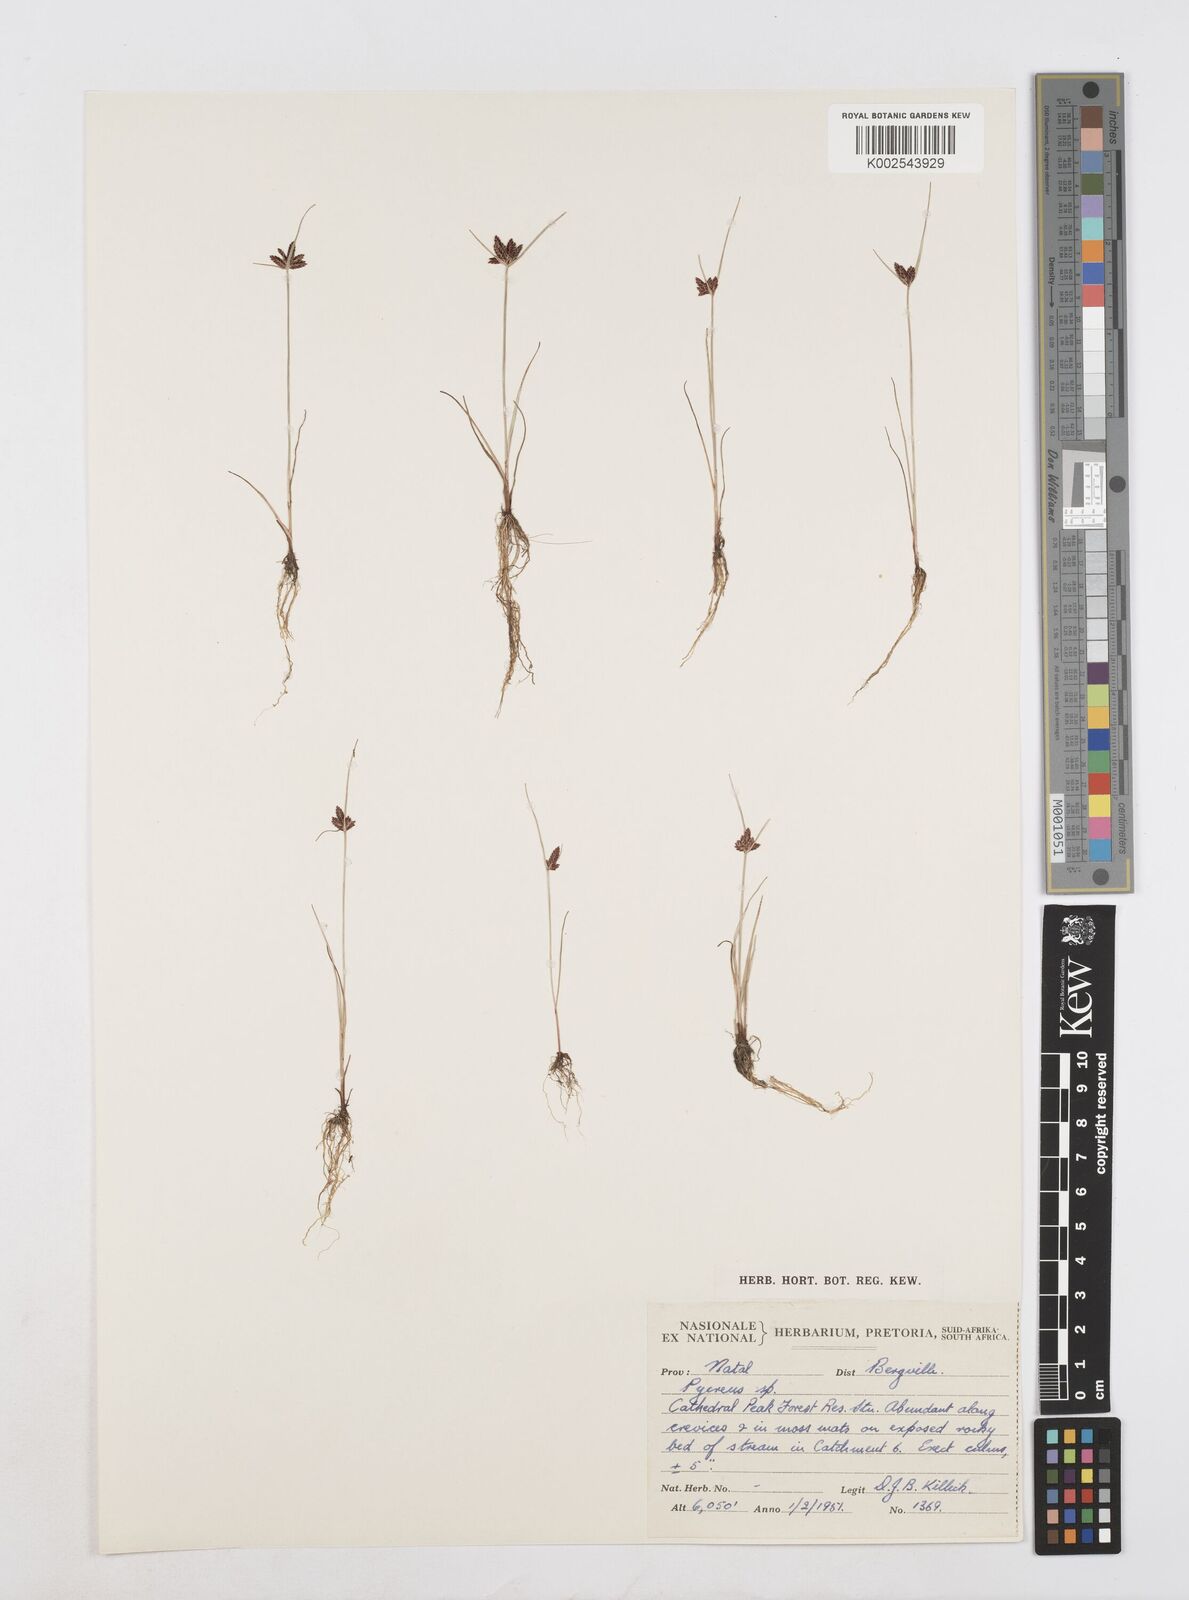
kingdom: Plantae
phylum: Tracheophyta
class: Liliopsida
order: Poales
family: Cyperaceae
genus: Cyperus
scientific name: Cyperus flavescens
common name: Yellow galingale
